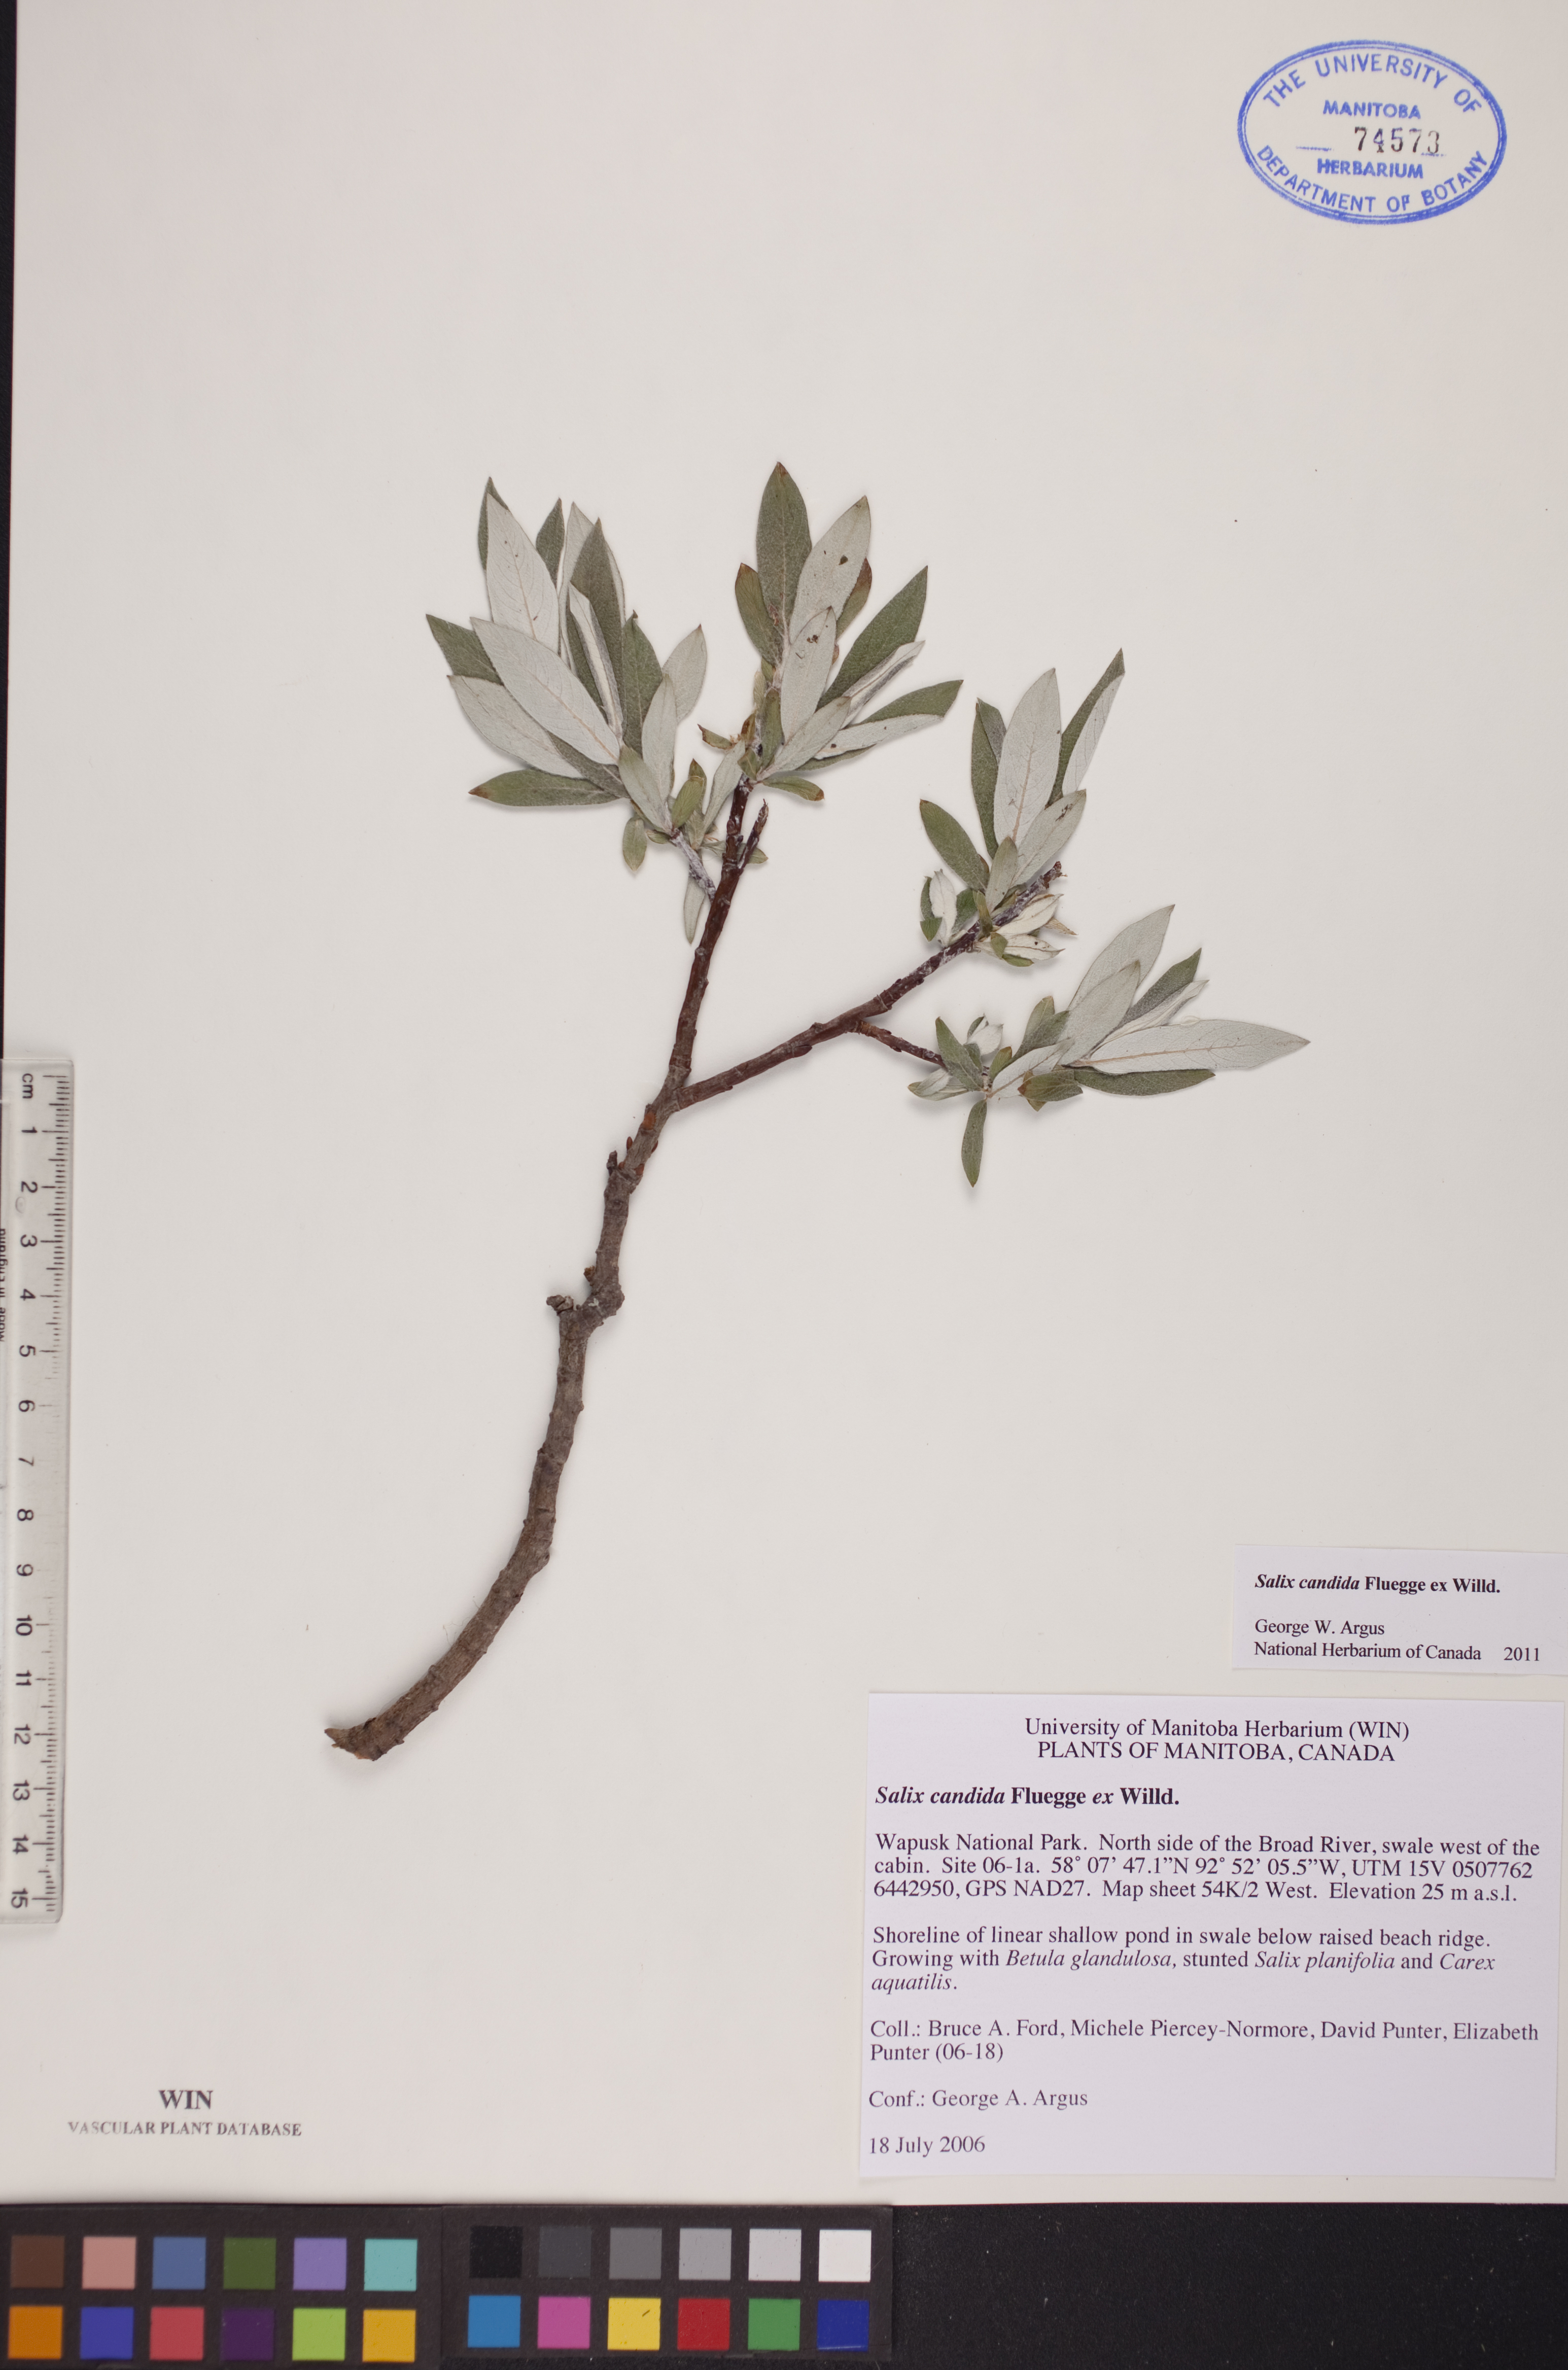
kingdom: Plantae
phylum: Tracheophyta
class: Magnoliopsida
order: Malpighiales
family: Salicaceae
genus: Salix
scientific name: Salix candida
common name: Hoary willow
